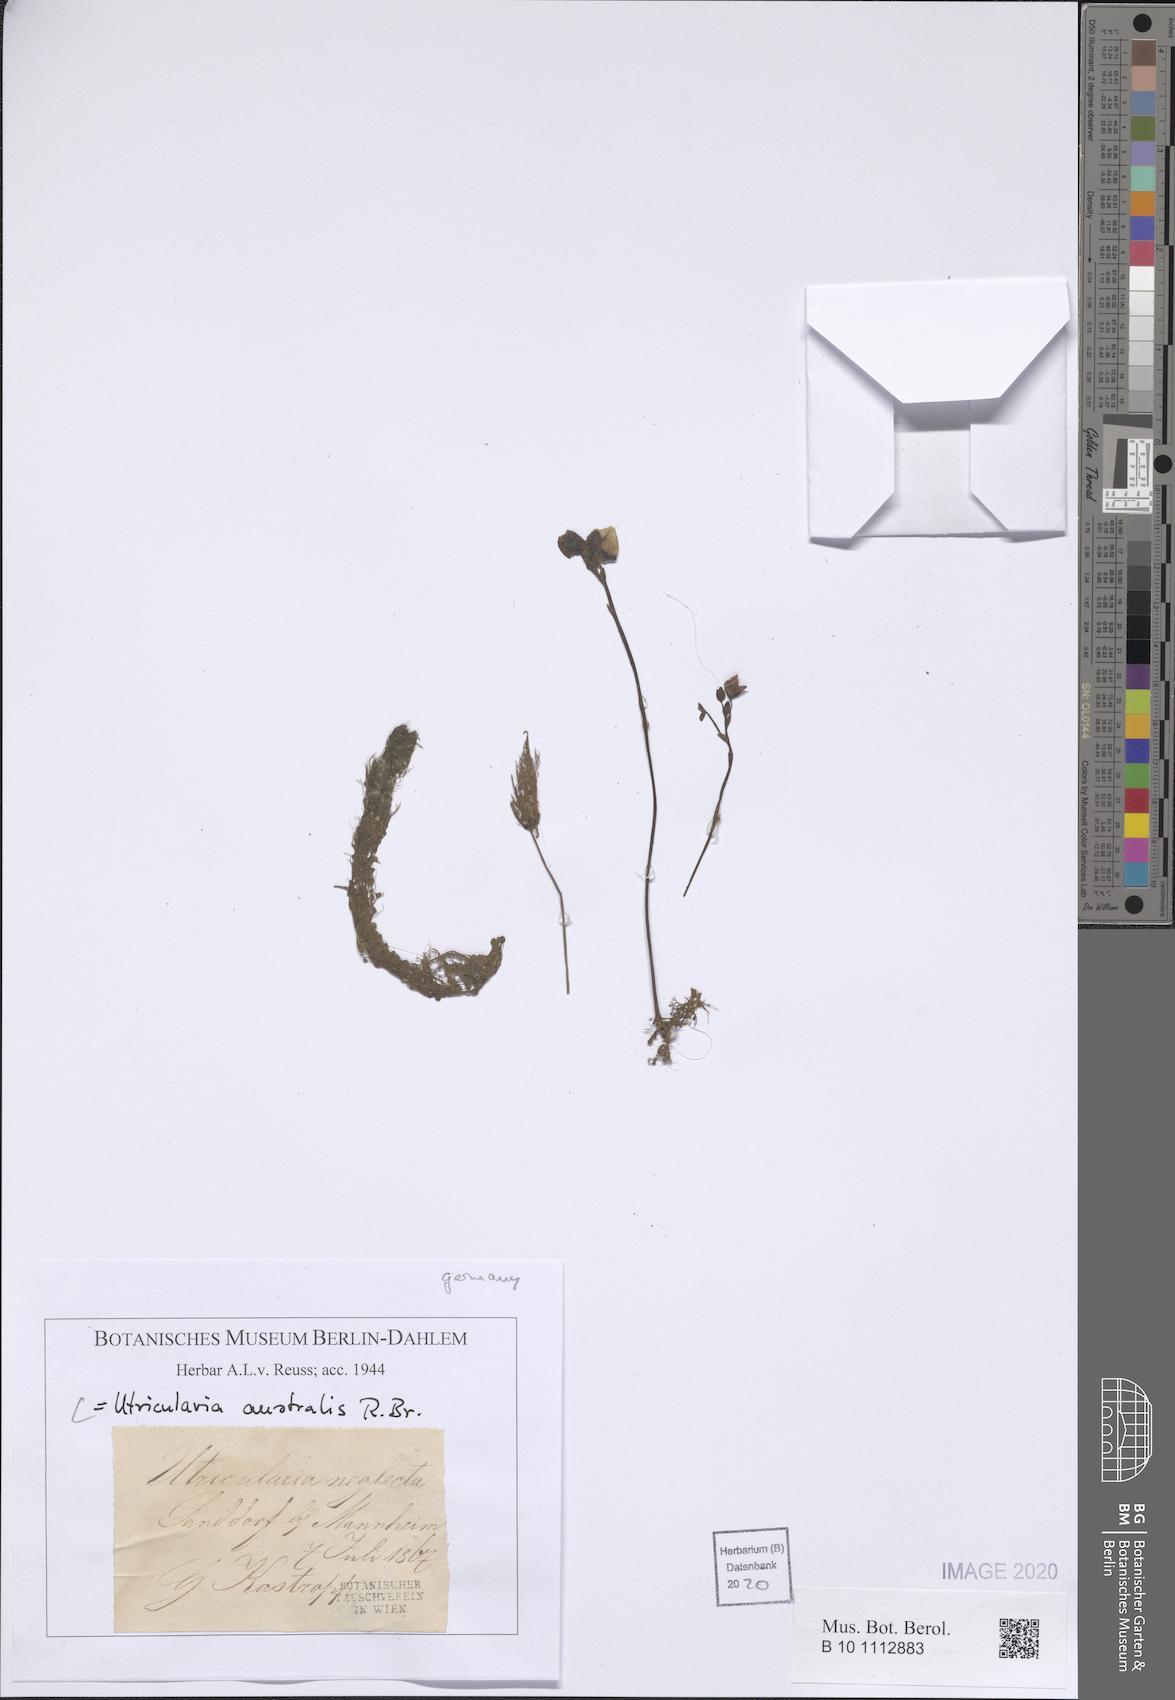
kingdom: Plantae
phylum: Tracheophyta
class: Magnoliopsida
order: Lamiales
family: Lentibulariaceae
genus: Utricularia
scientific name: Utricularia australis
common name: Bladderwort
